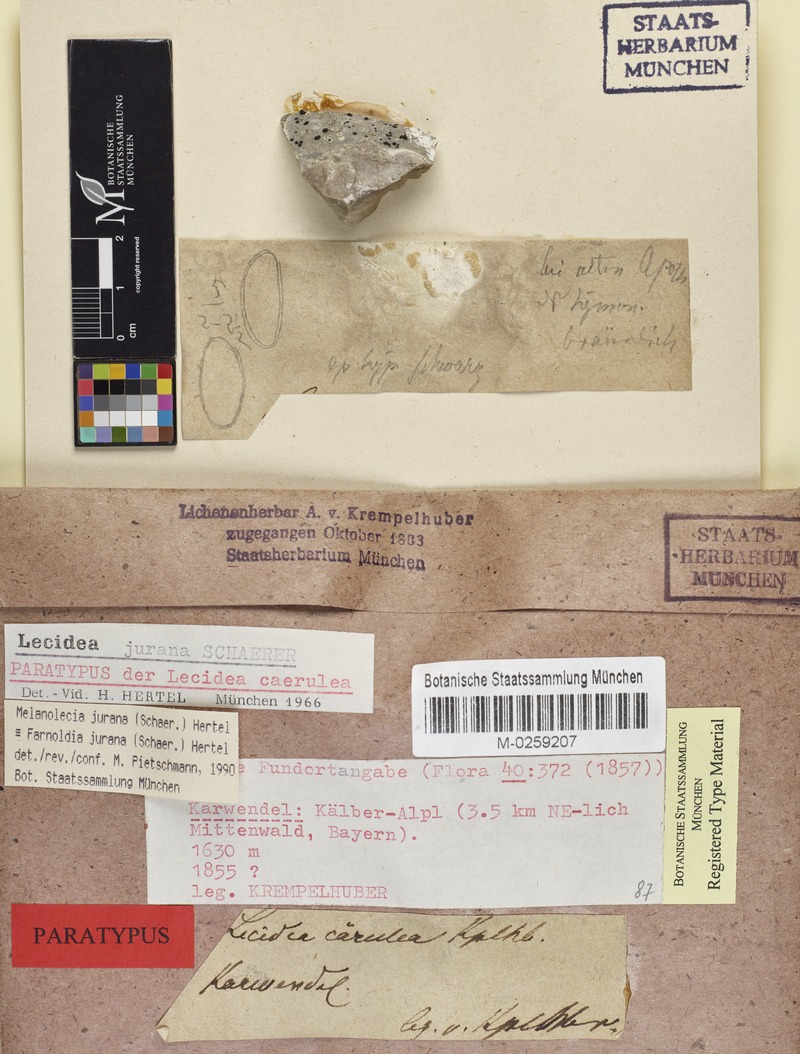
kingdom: Fungi
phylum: Ascomycota
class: Lecanoromycetes
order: Lecideales
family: Lecideaceae
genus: Farnoldia
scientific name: Farnoldia jurana
